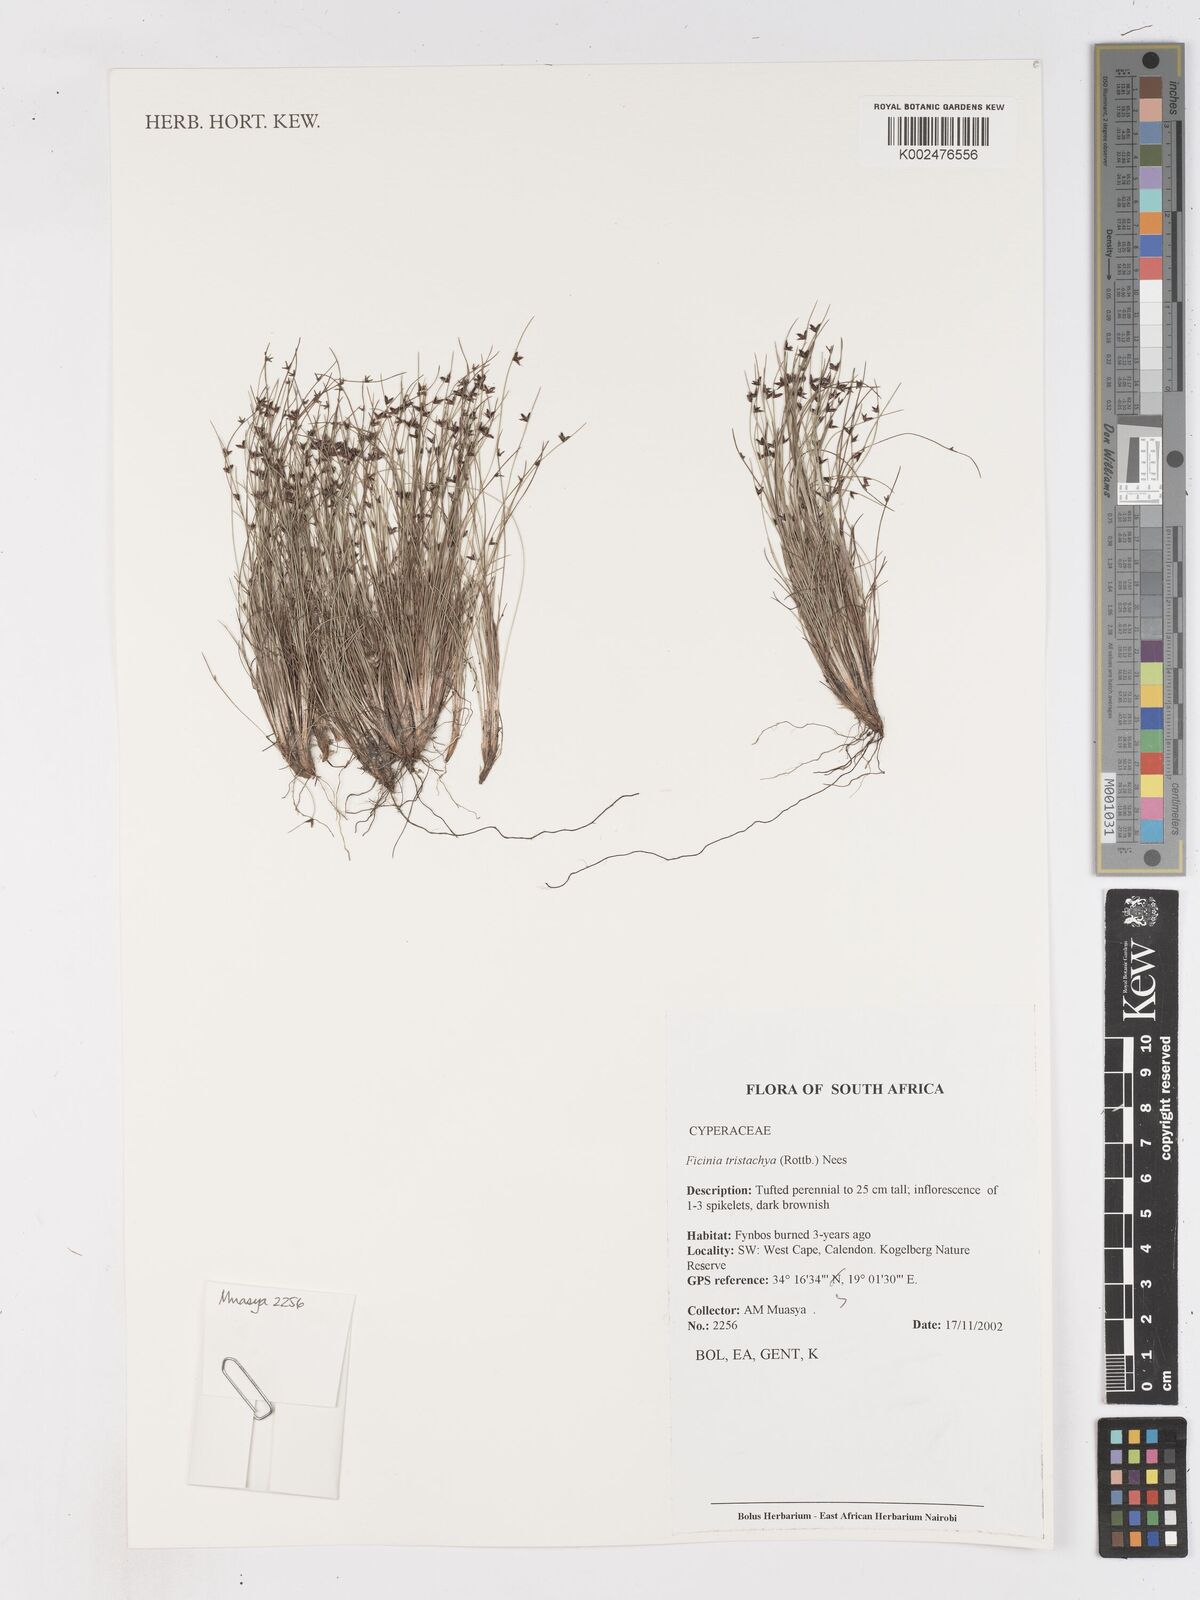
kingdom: Plantae
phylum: Tracheophyta
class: Liliopsida
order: Poales
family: Cyperaceae
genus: Ficinia
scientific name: Ficinia
